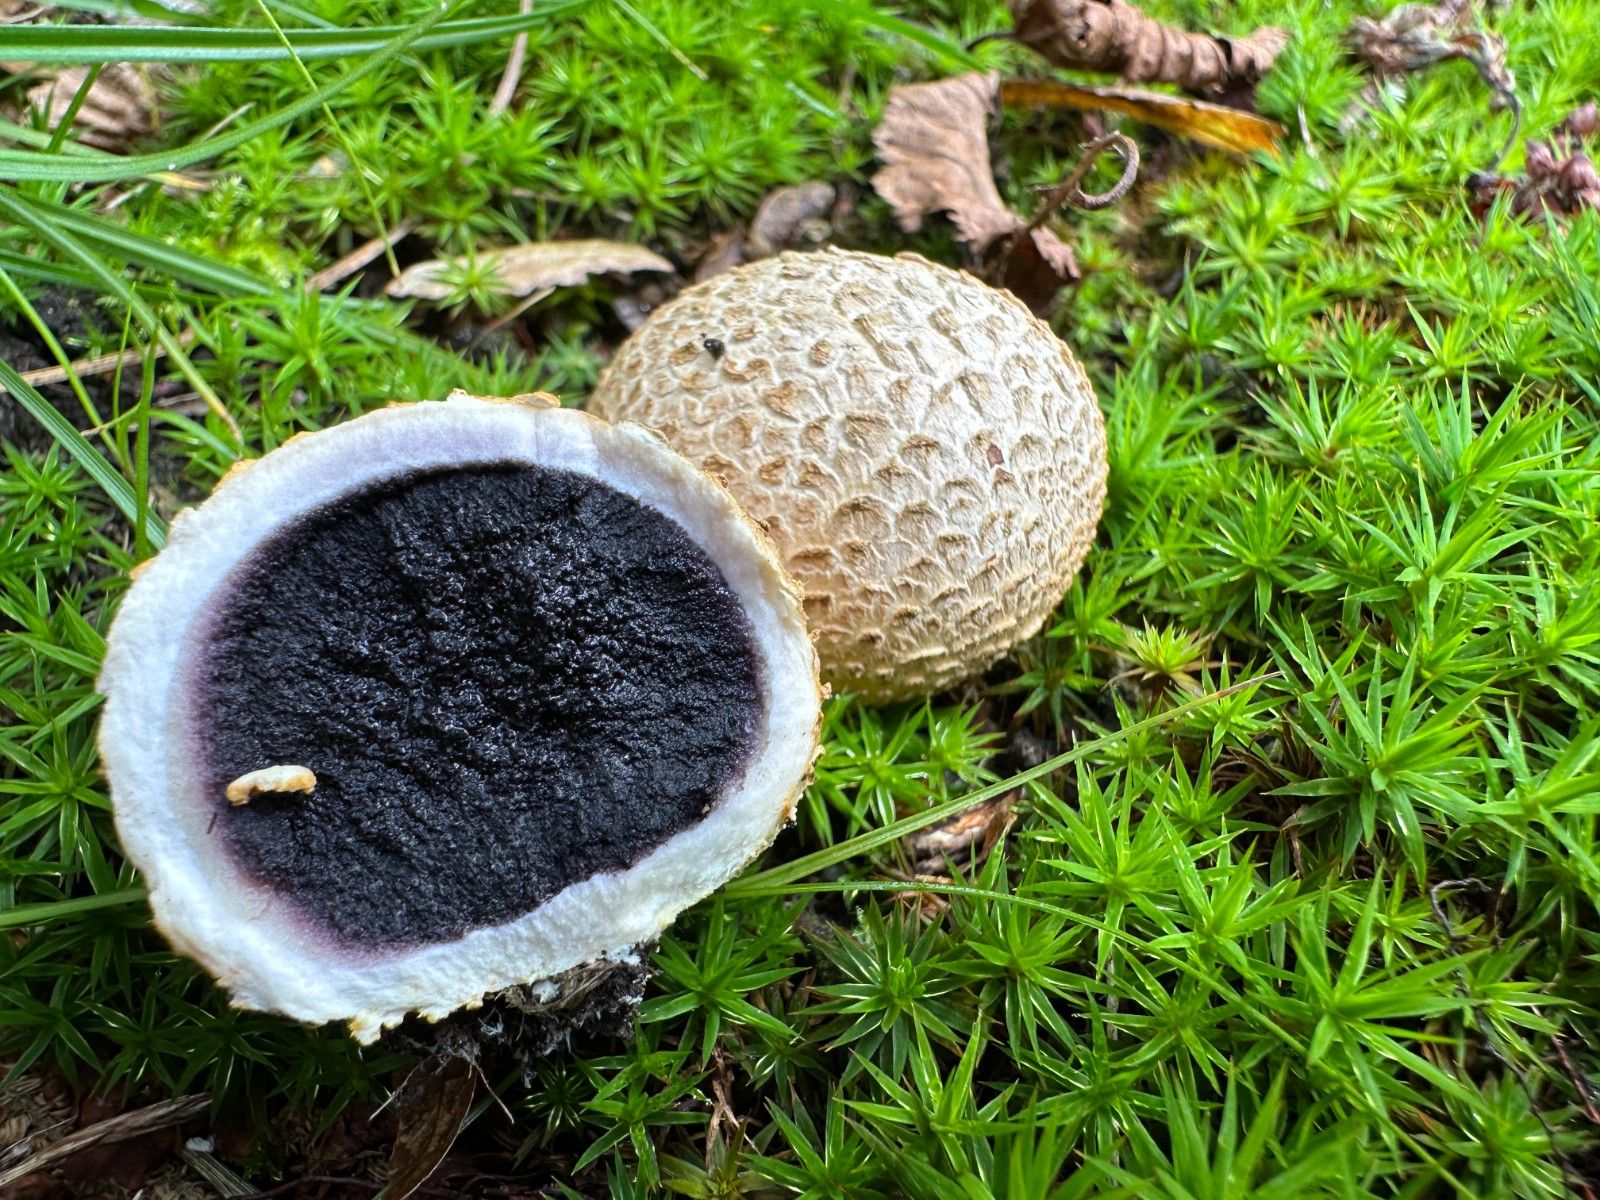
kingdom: Fungi
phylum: Basidiomycota
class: Agaricomycetes
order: Boletales
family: Sclerodermataceae
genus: Scleroderma
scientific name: Scleroderma citrinum
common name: almindelig bruskbold
